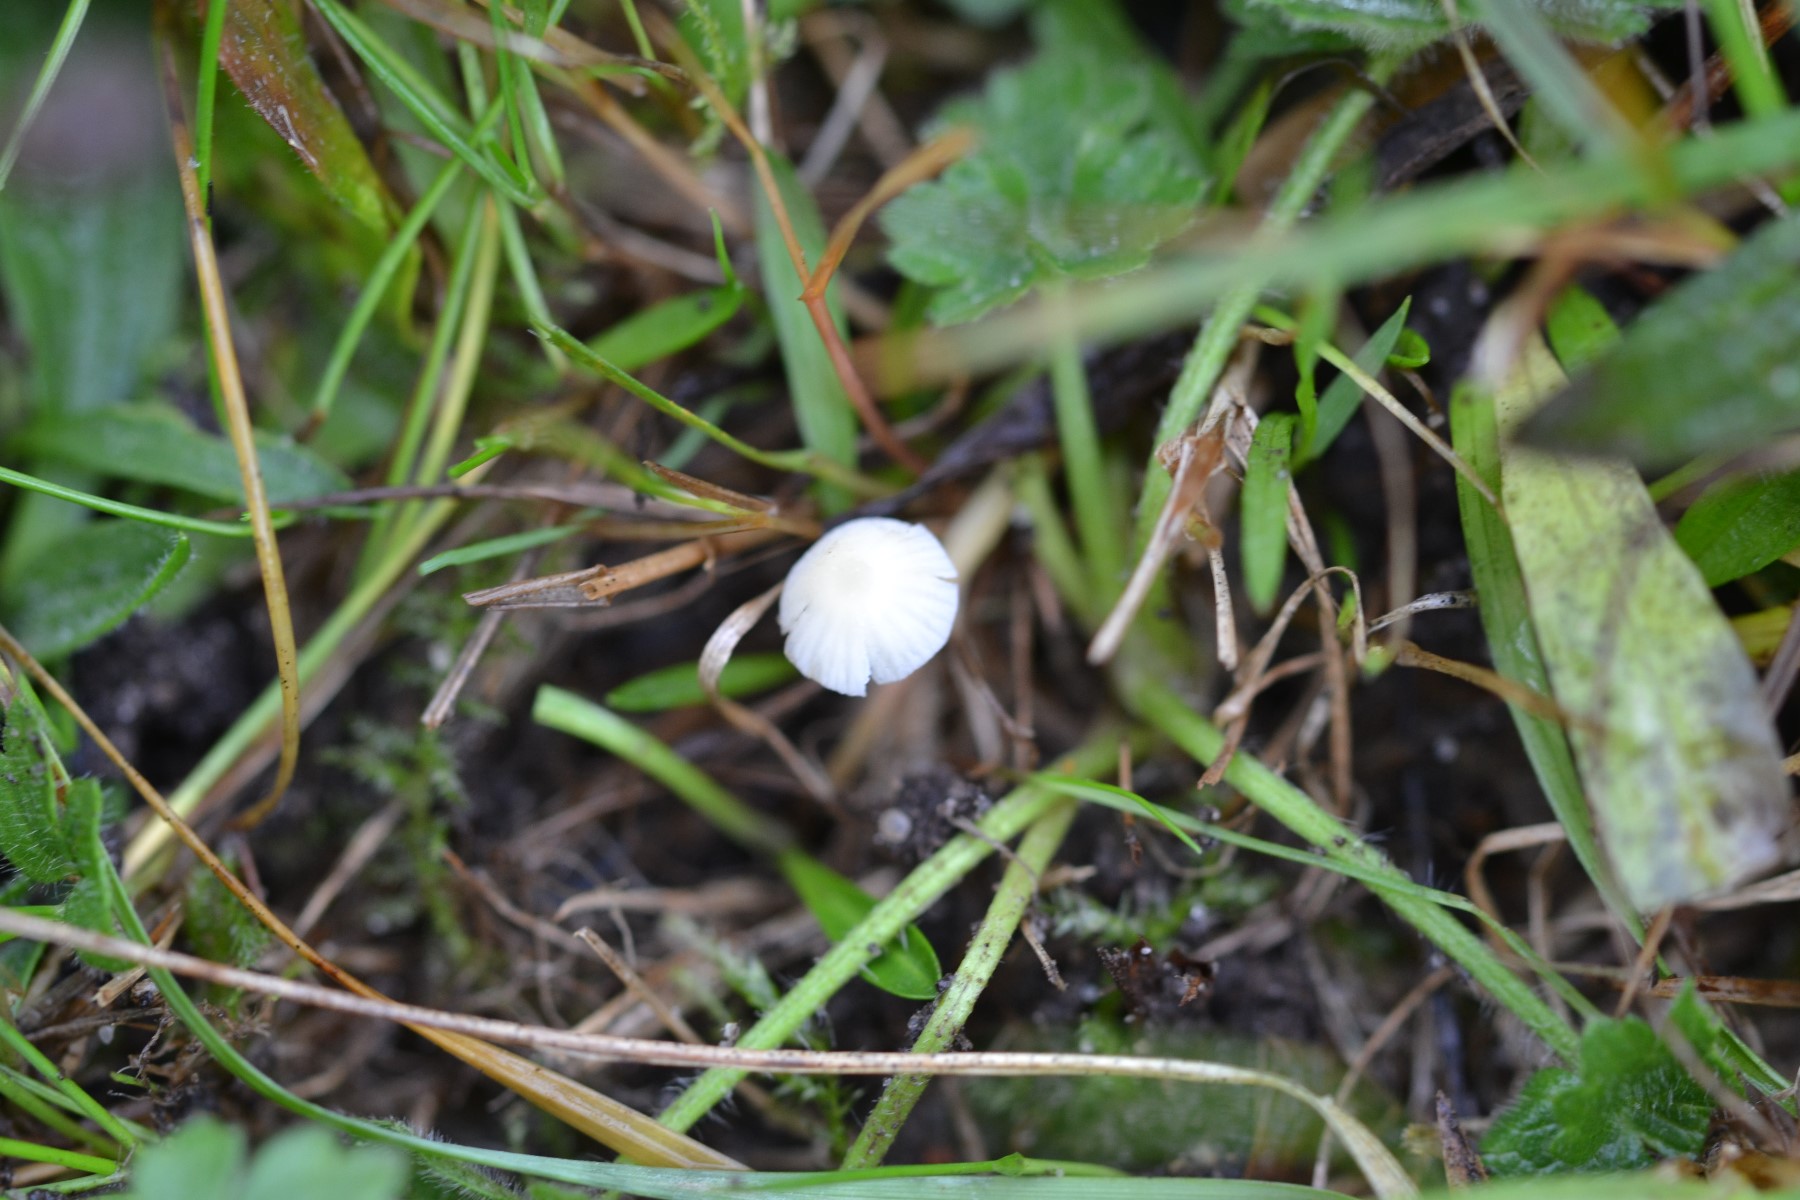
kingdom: Fungi
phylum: Basidiomycota
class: Agaricomycetes
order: Agaricales
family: Mycenaceae
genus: Atheniella
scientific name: Atheniella
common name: huesvamp
